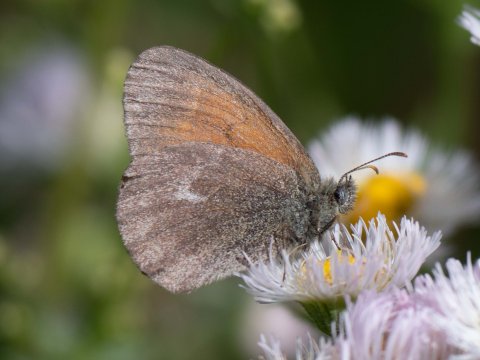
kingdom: Animalia
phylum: Arthropoda
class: Insecta
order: Lepidoptera
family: Nymphalidae
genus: Coenonympha
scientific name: Coenonympha california
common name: California Ringlet
